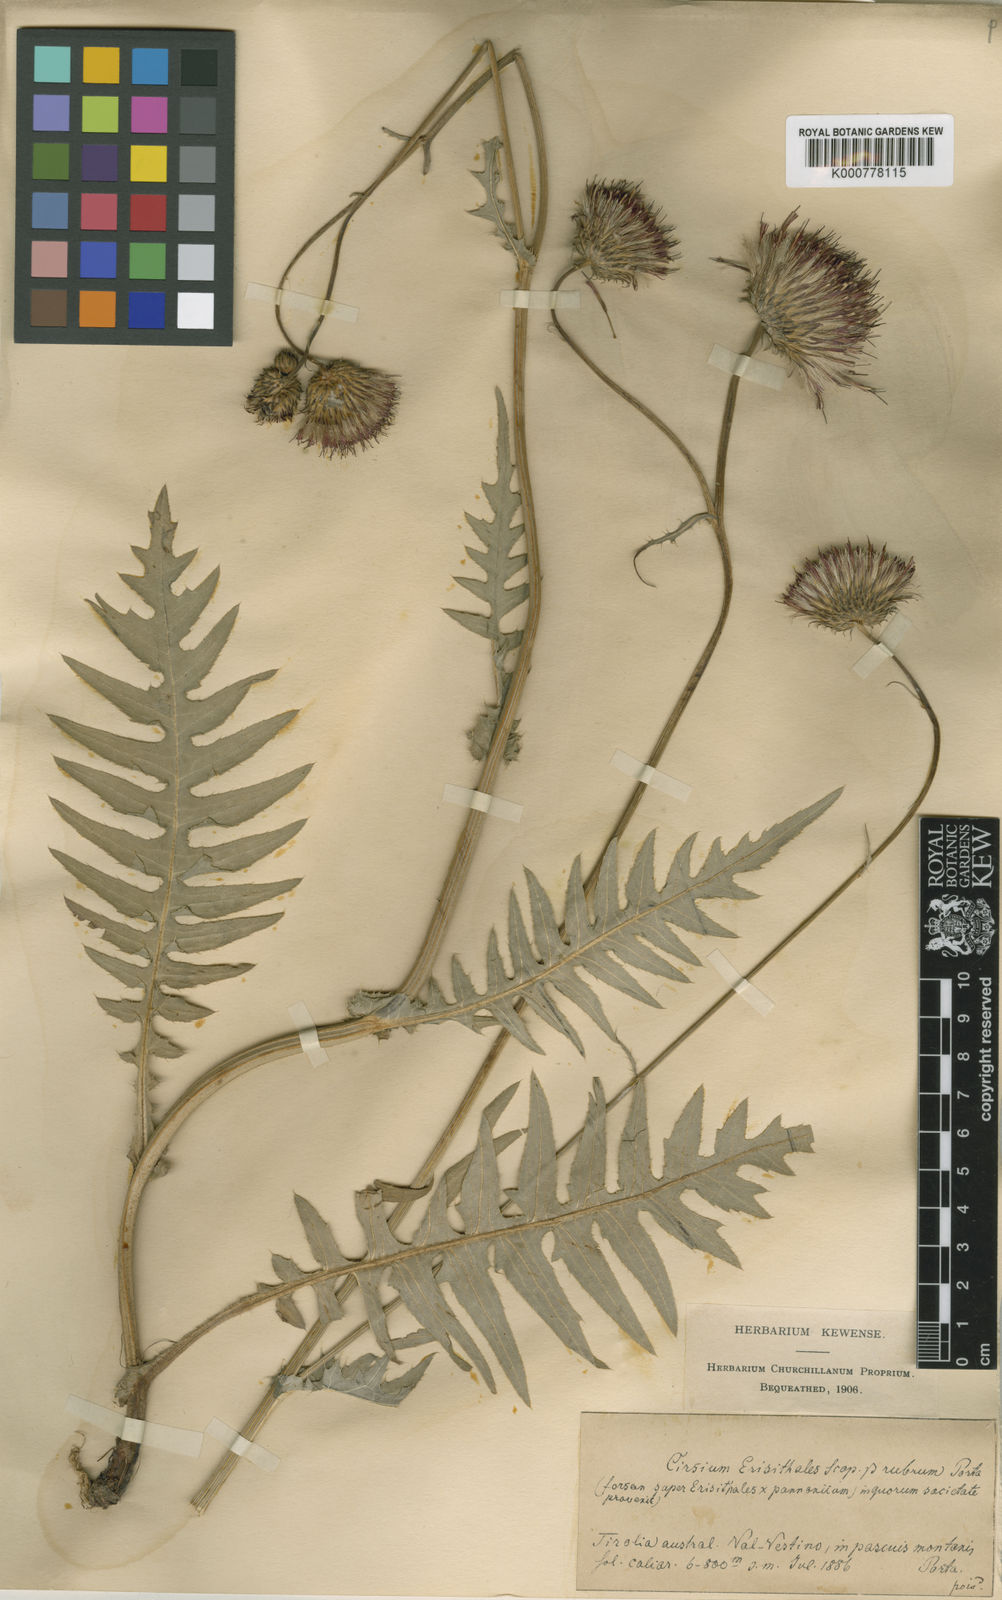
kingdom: Plantae
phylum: Tracheophyta
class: Magnoliopsida
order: Asterales
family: Asteraceae
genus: Cirsium
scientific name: Cirsium pannonicum
